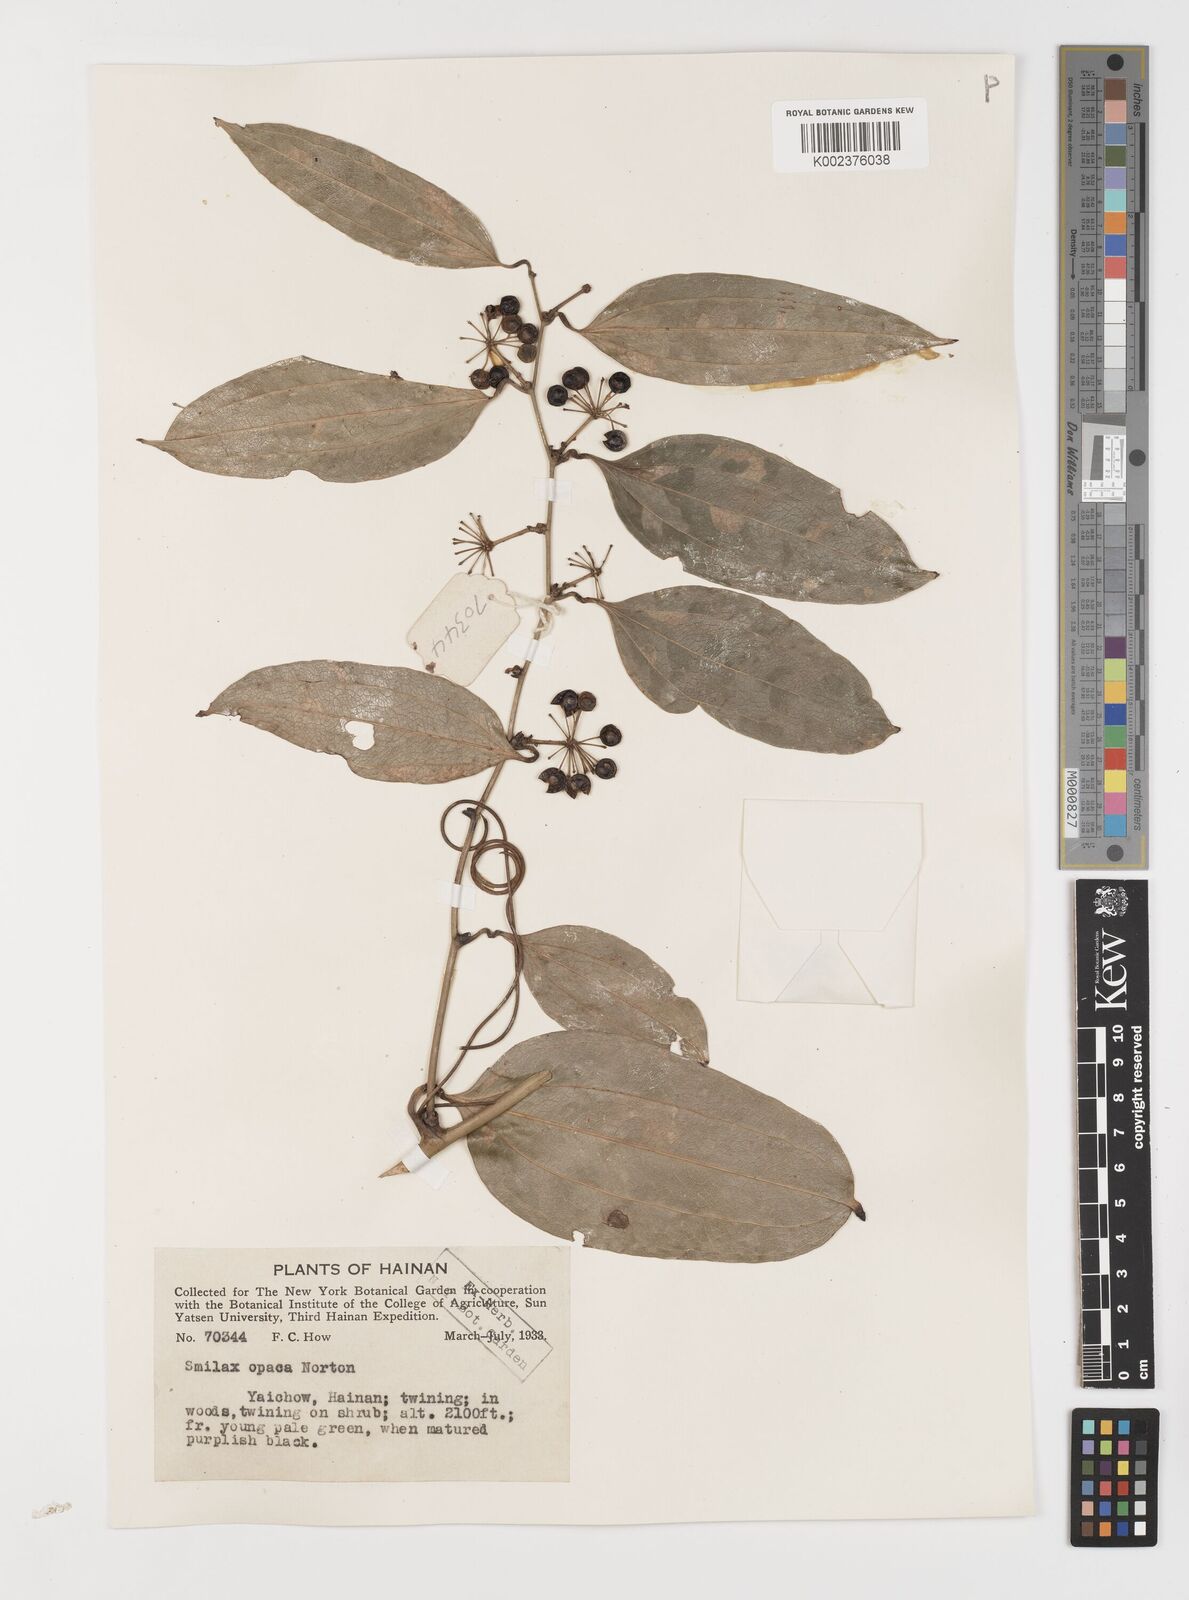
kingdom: Plantae
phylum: Tracheophyta
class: Liliopsida
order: Liliales
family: Smilacaceae
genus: Smilax
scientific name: Smilax laevis
